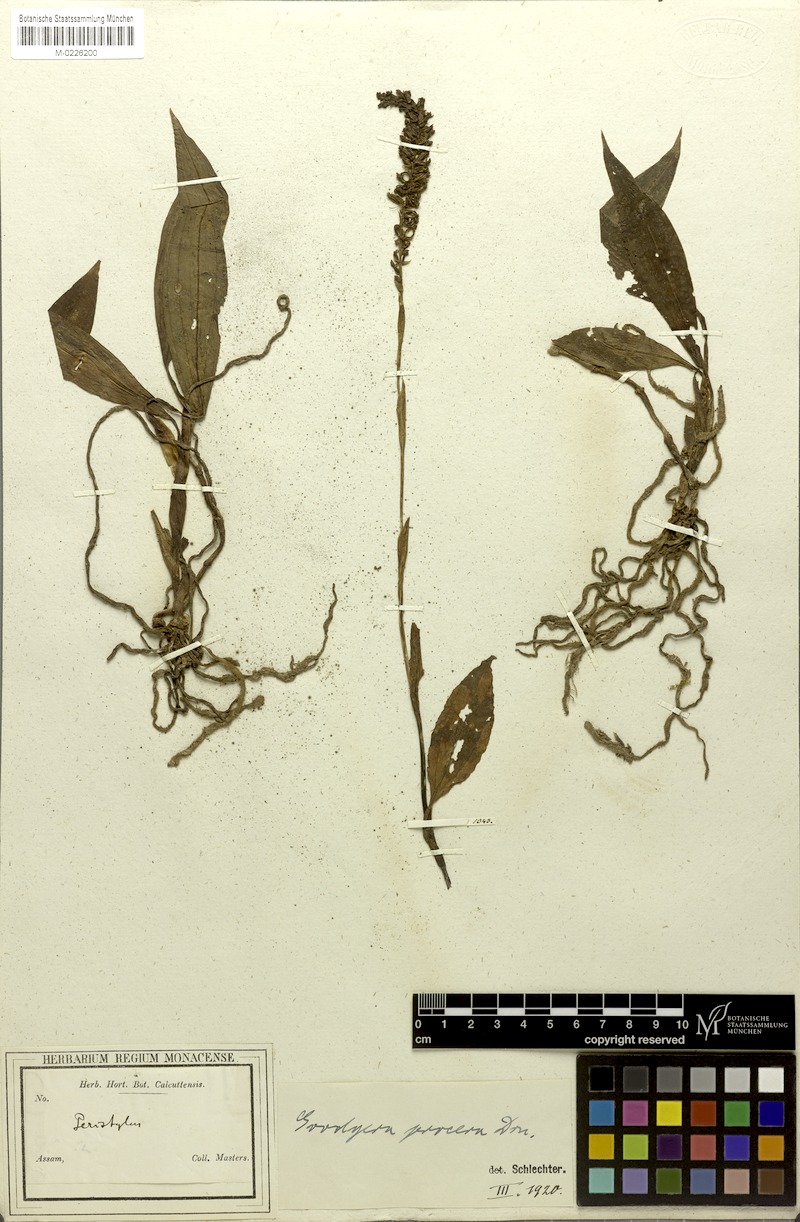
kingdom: Plantae
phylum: Tracheophyta
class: Liliopsida
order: Asparagales
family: Orchidaceae
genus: Goodyera
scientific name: Goodyera procera
